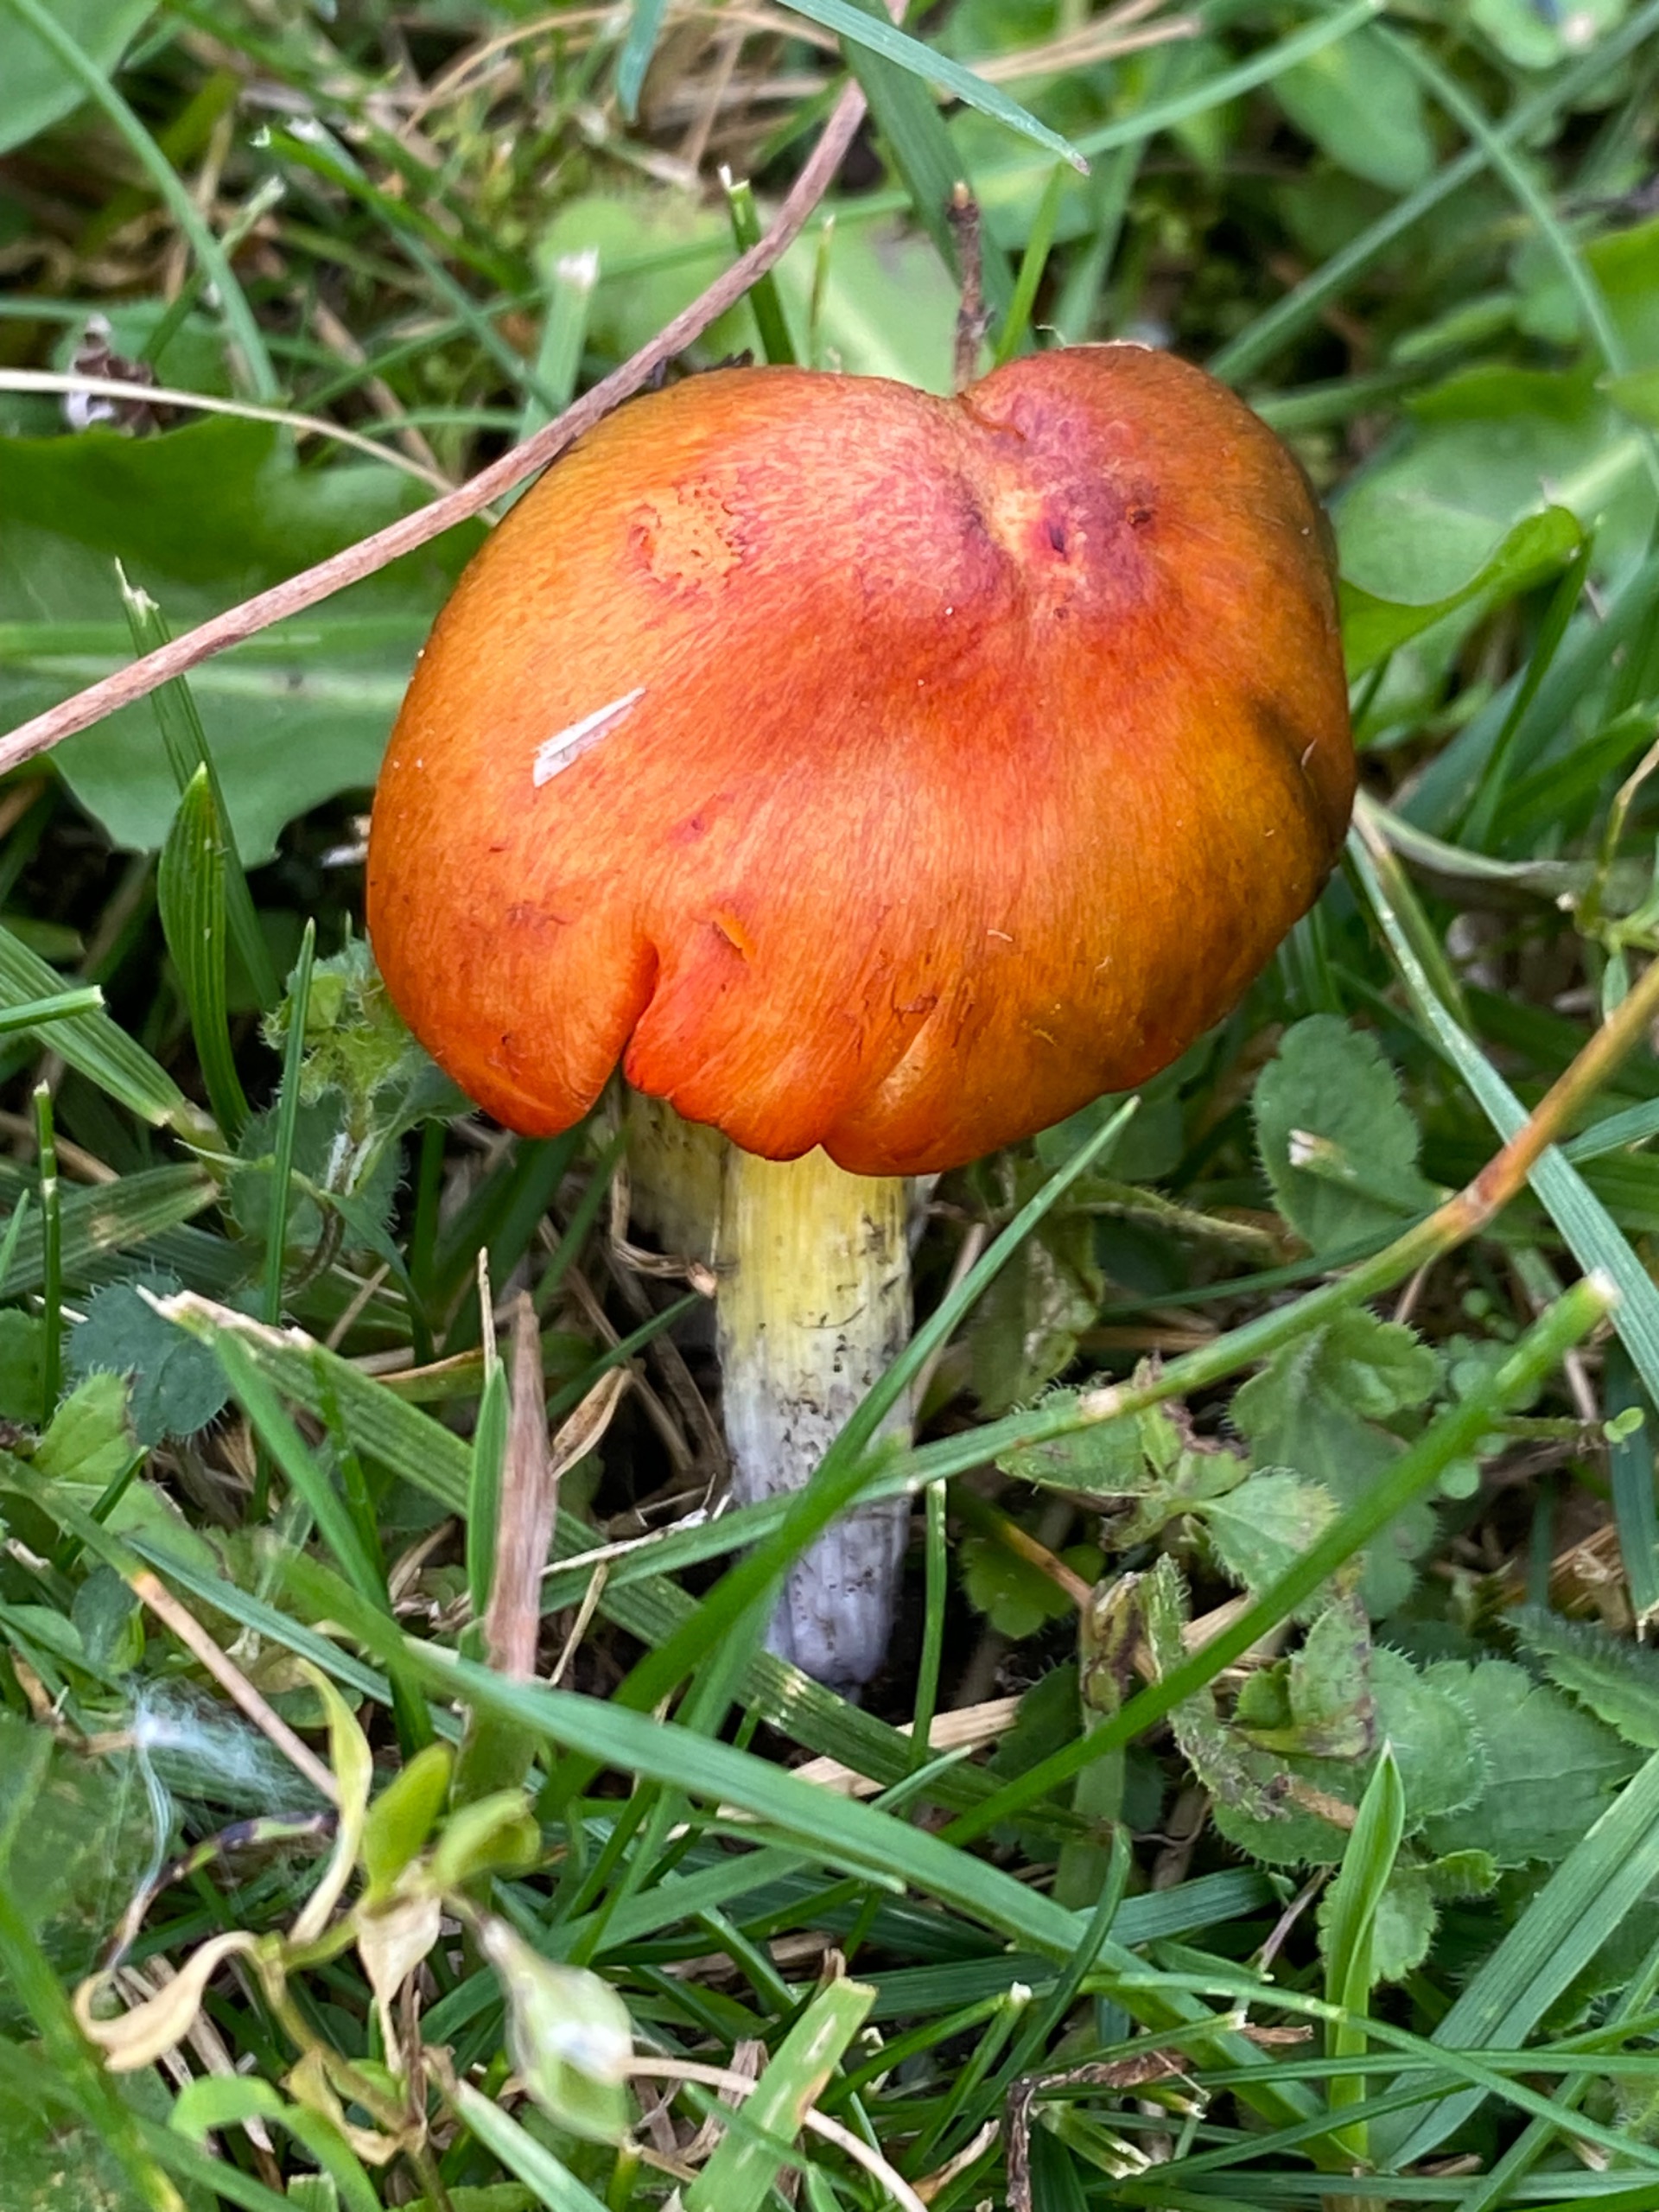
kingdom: Fungi
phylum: Basidiomycota
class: Agaricomycetes
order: Agaricales
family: Hygrophoraceae
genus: Hygrocybe
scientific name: Hygrocybe conica
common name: Kegle-vokshat
